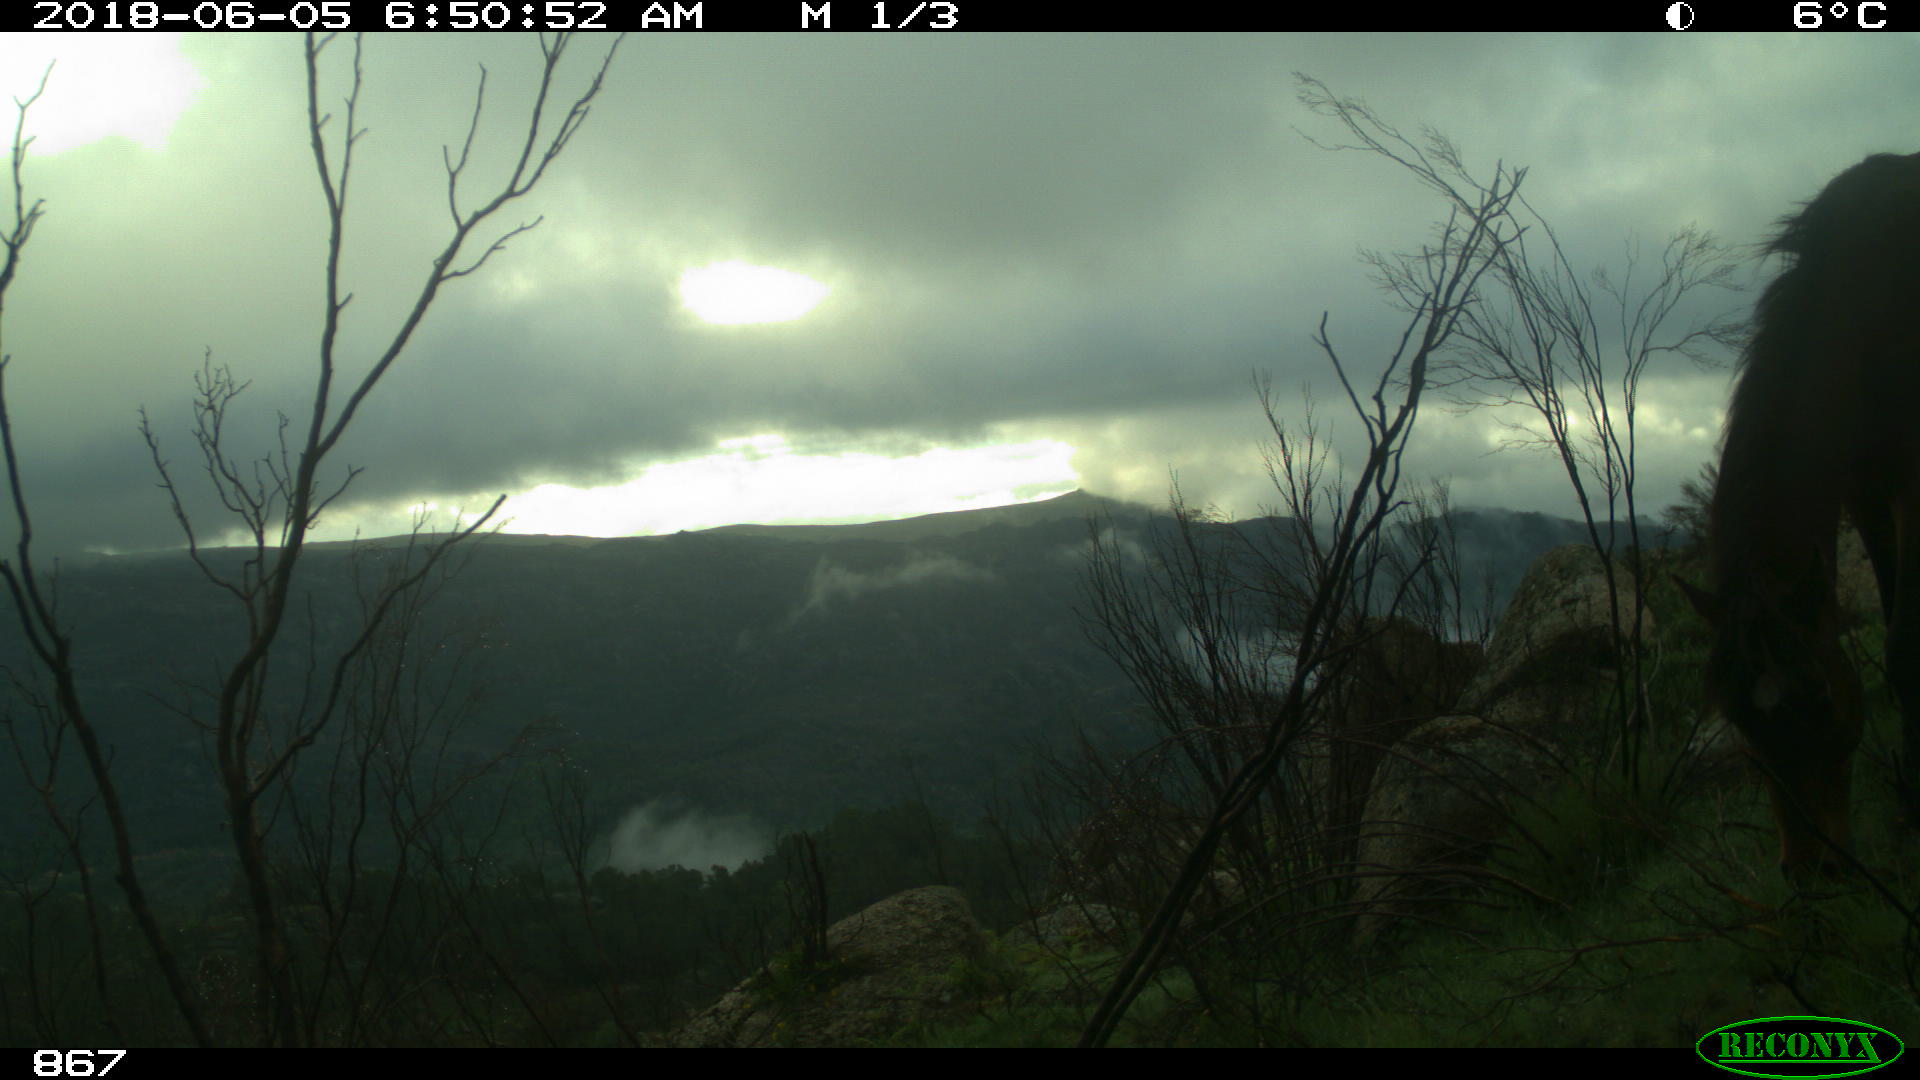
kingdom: Animalia
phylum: Chordata
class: Mammalia
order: Perissodactyla
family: Equidae
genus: Equus
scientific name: Equus caballus
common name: Horse
